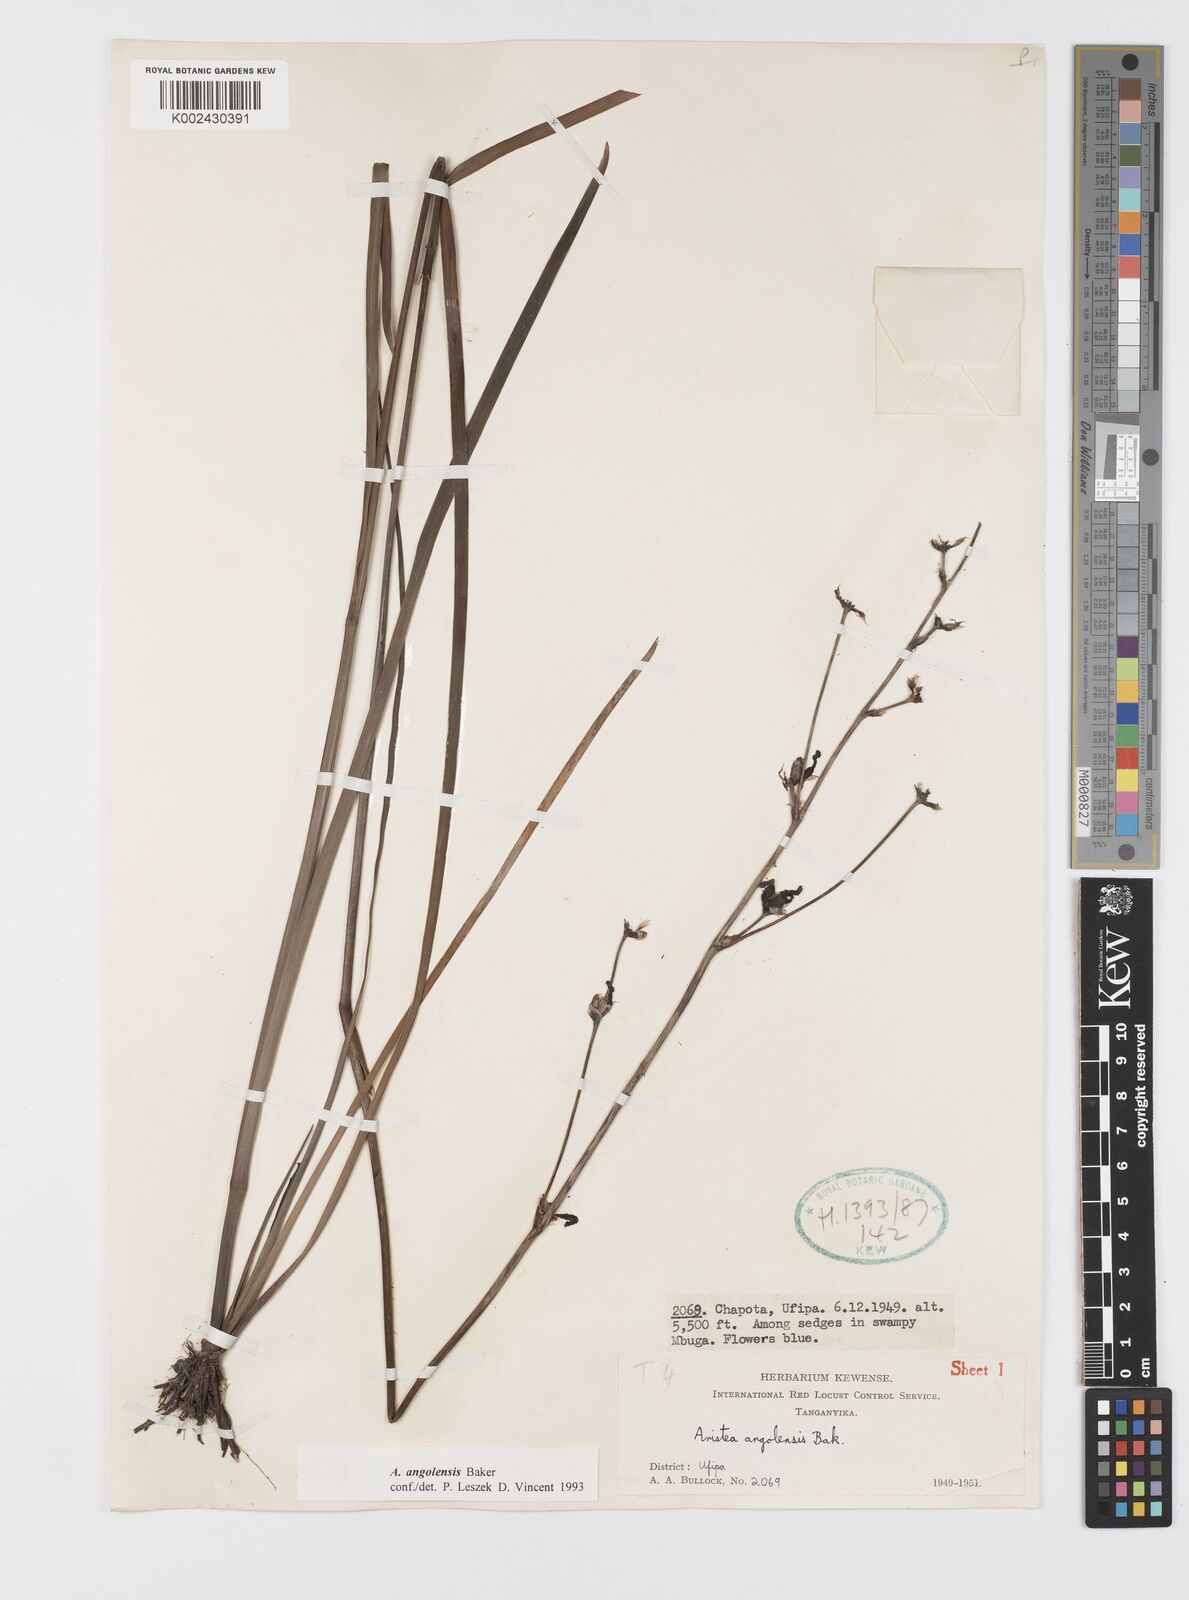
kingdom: Plantae
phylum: Tracheophyta
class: Liliopsida
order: Asparagales
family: Iridaceae
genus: Aristea
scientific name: Aristea angolensis
